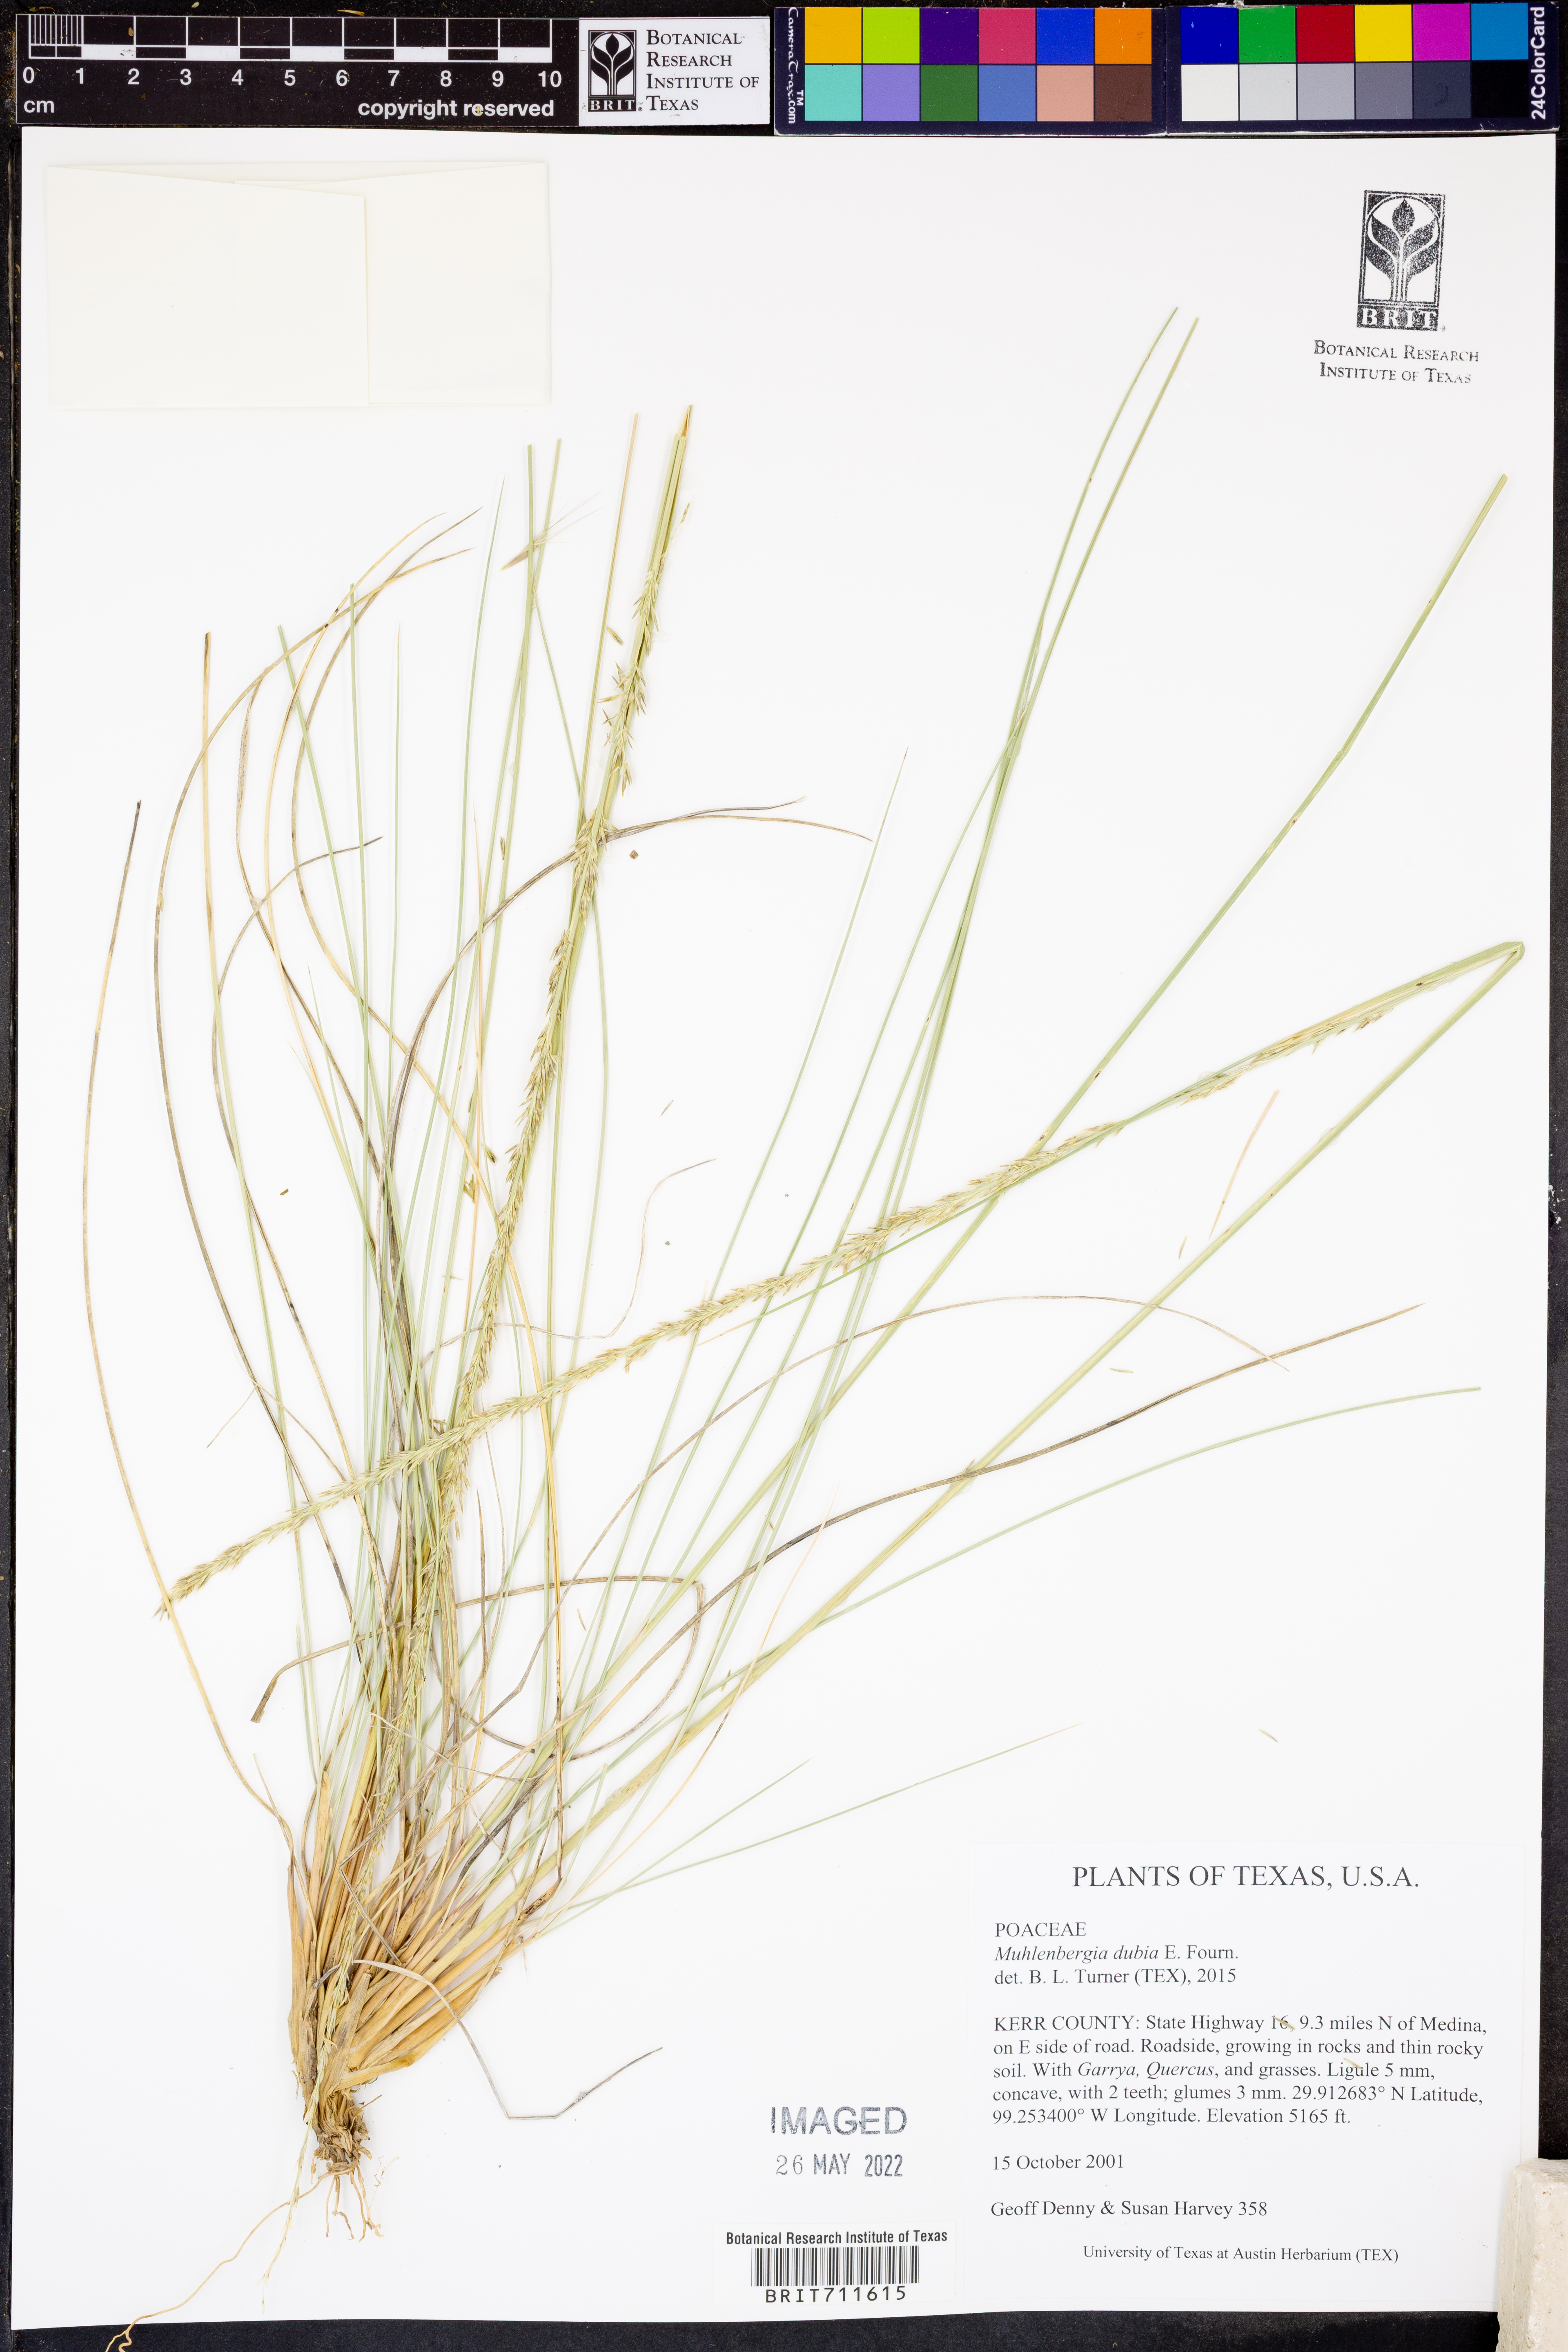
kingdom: Plantae
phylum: Tracheophyta
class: Liliopsida
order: Poales
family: Poaceae
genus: Muhlenbergia
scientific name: Muhlenbergia dubia
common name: Pine muhly
